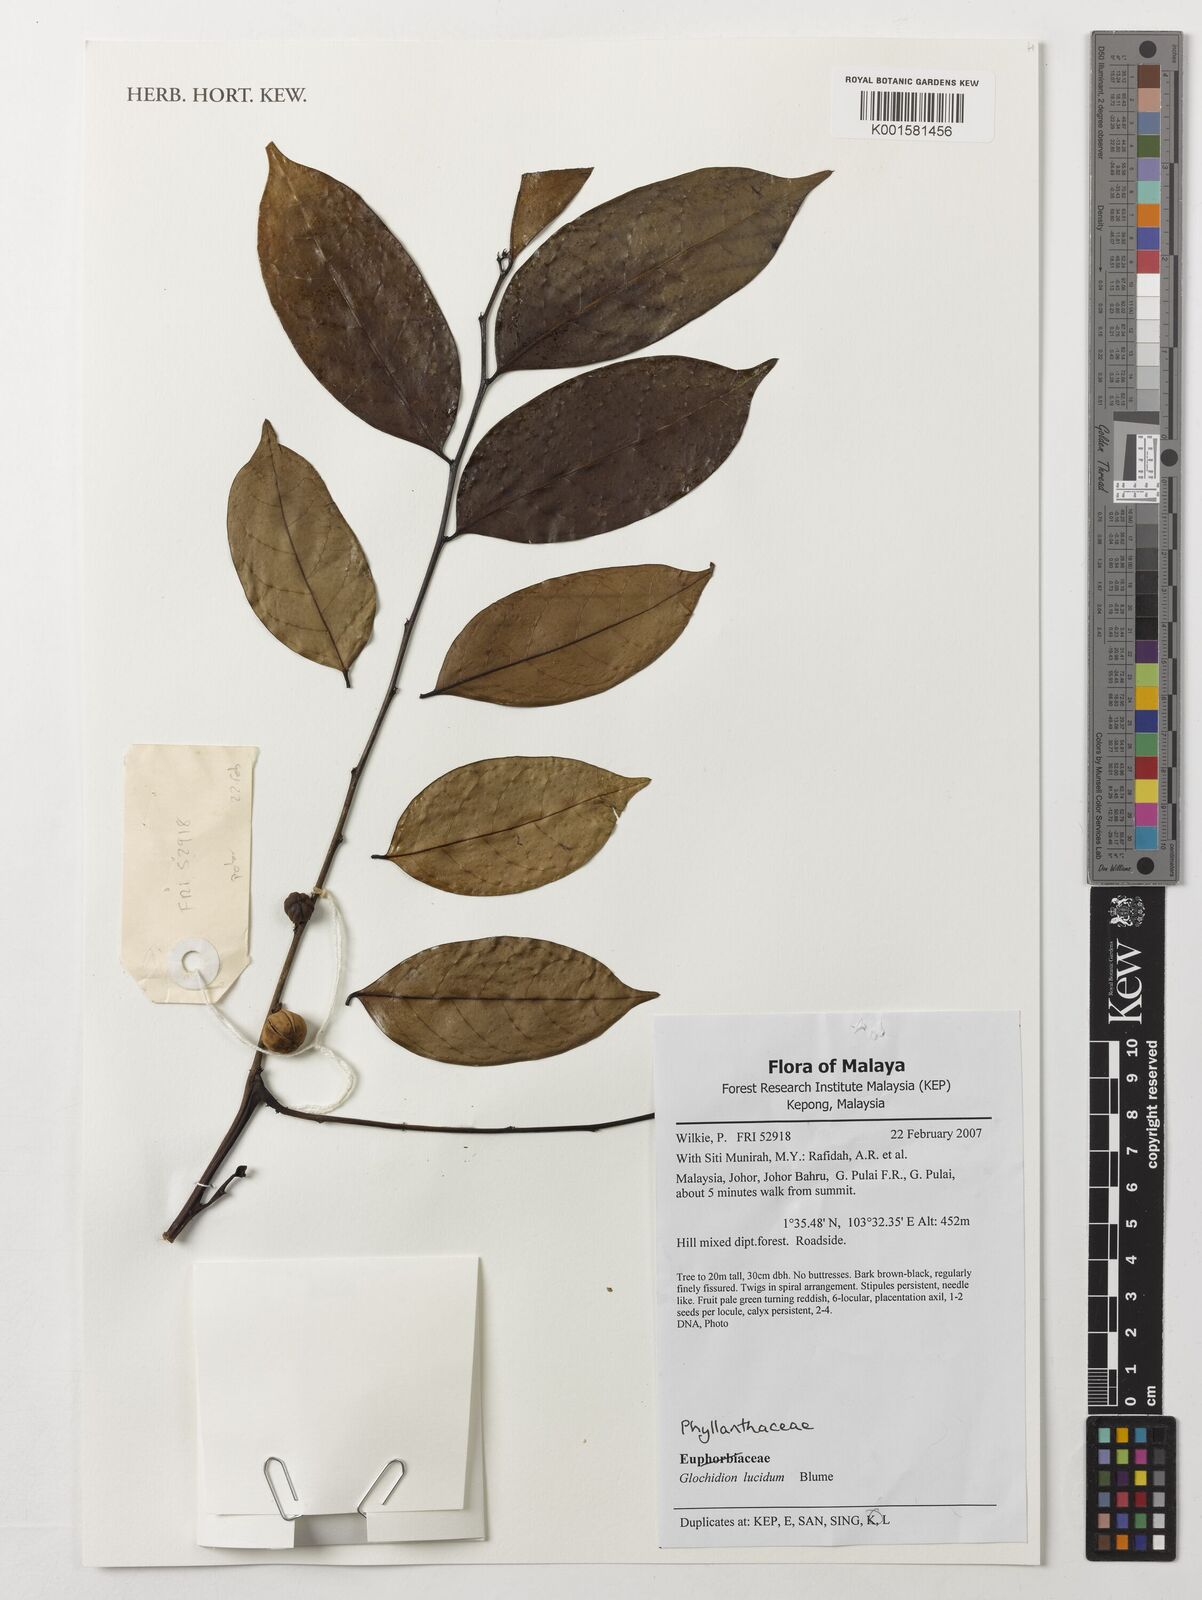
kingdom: Plantae
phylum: Tracheophyta
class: Magnoliopsida
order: Malpighiales
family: Phyllanthaceae
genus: Glochidion
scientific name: Glochidion lucidum
